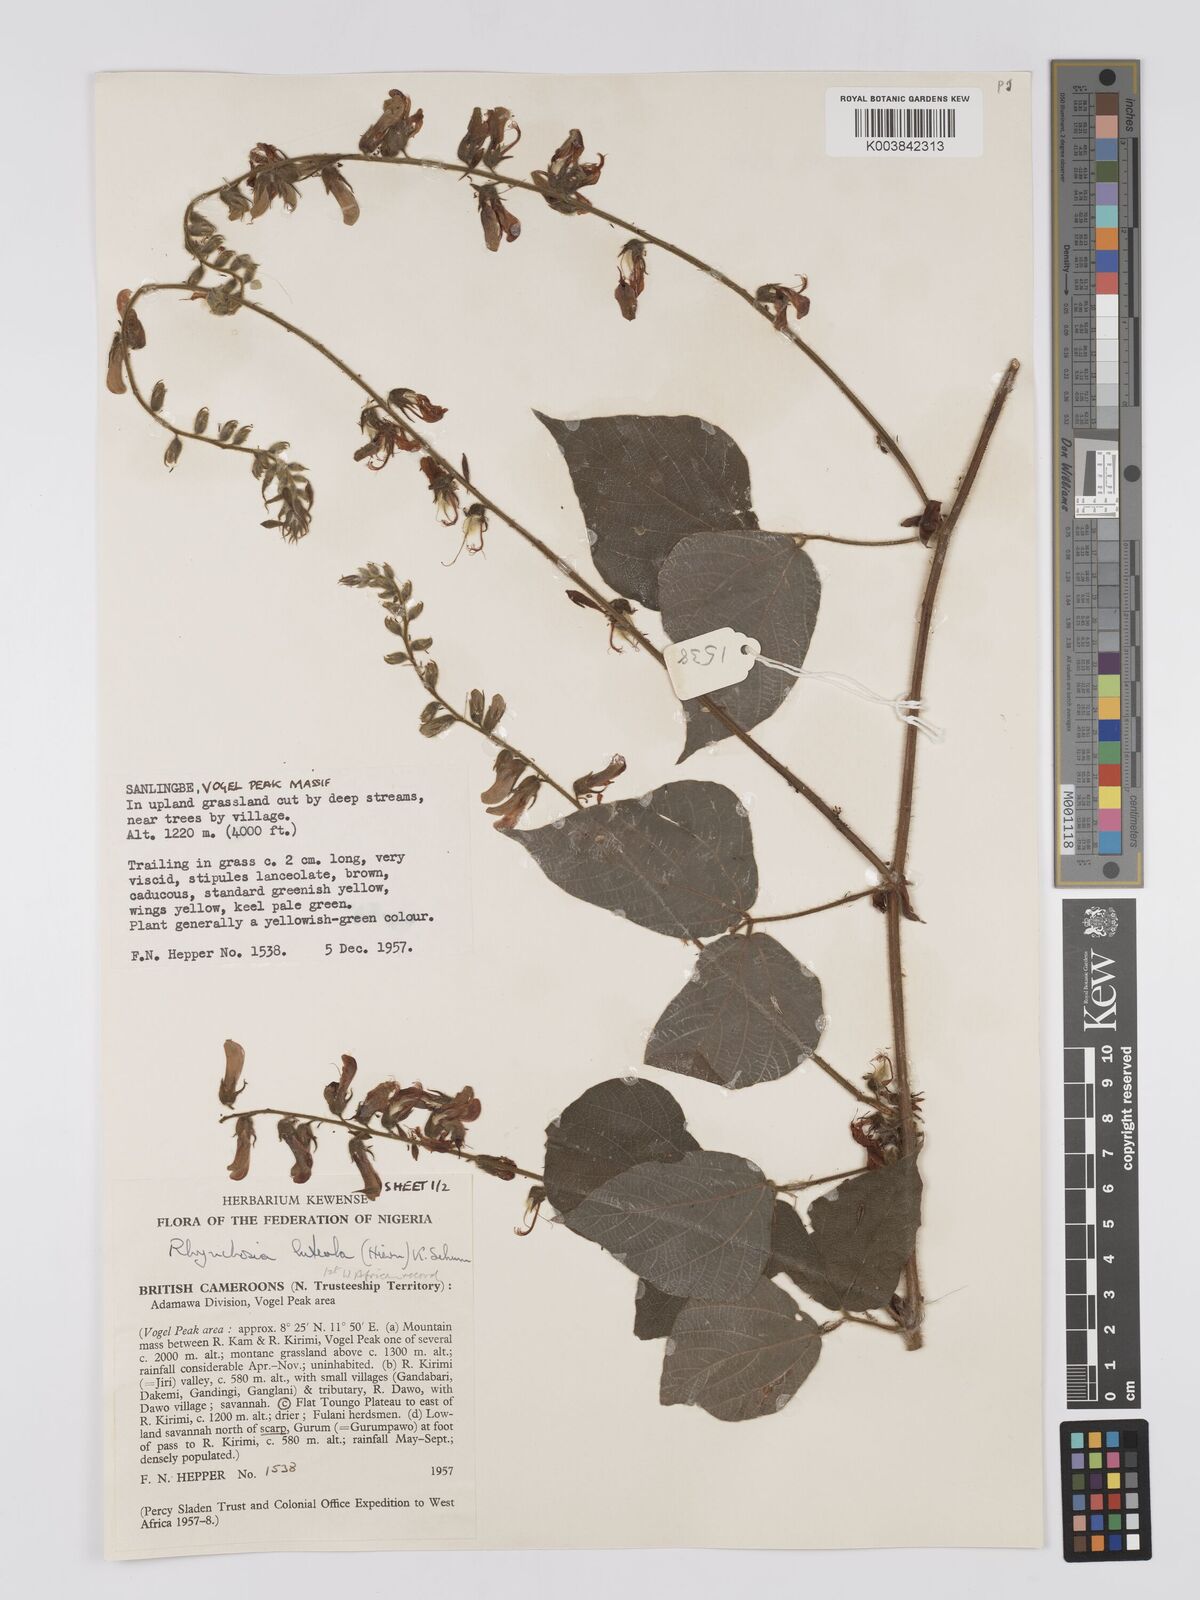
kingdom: Plantae
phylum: Tracheophyta
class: Magnoliopsida
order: Fabales
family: Fabaceae
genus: Rhynchosia
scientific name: Rhynchosia luteola
